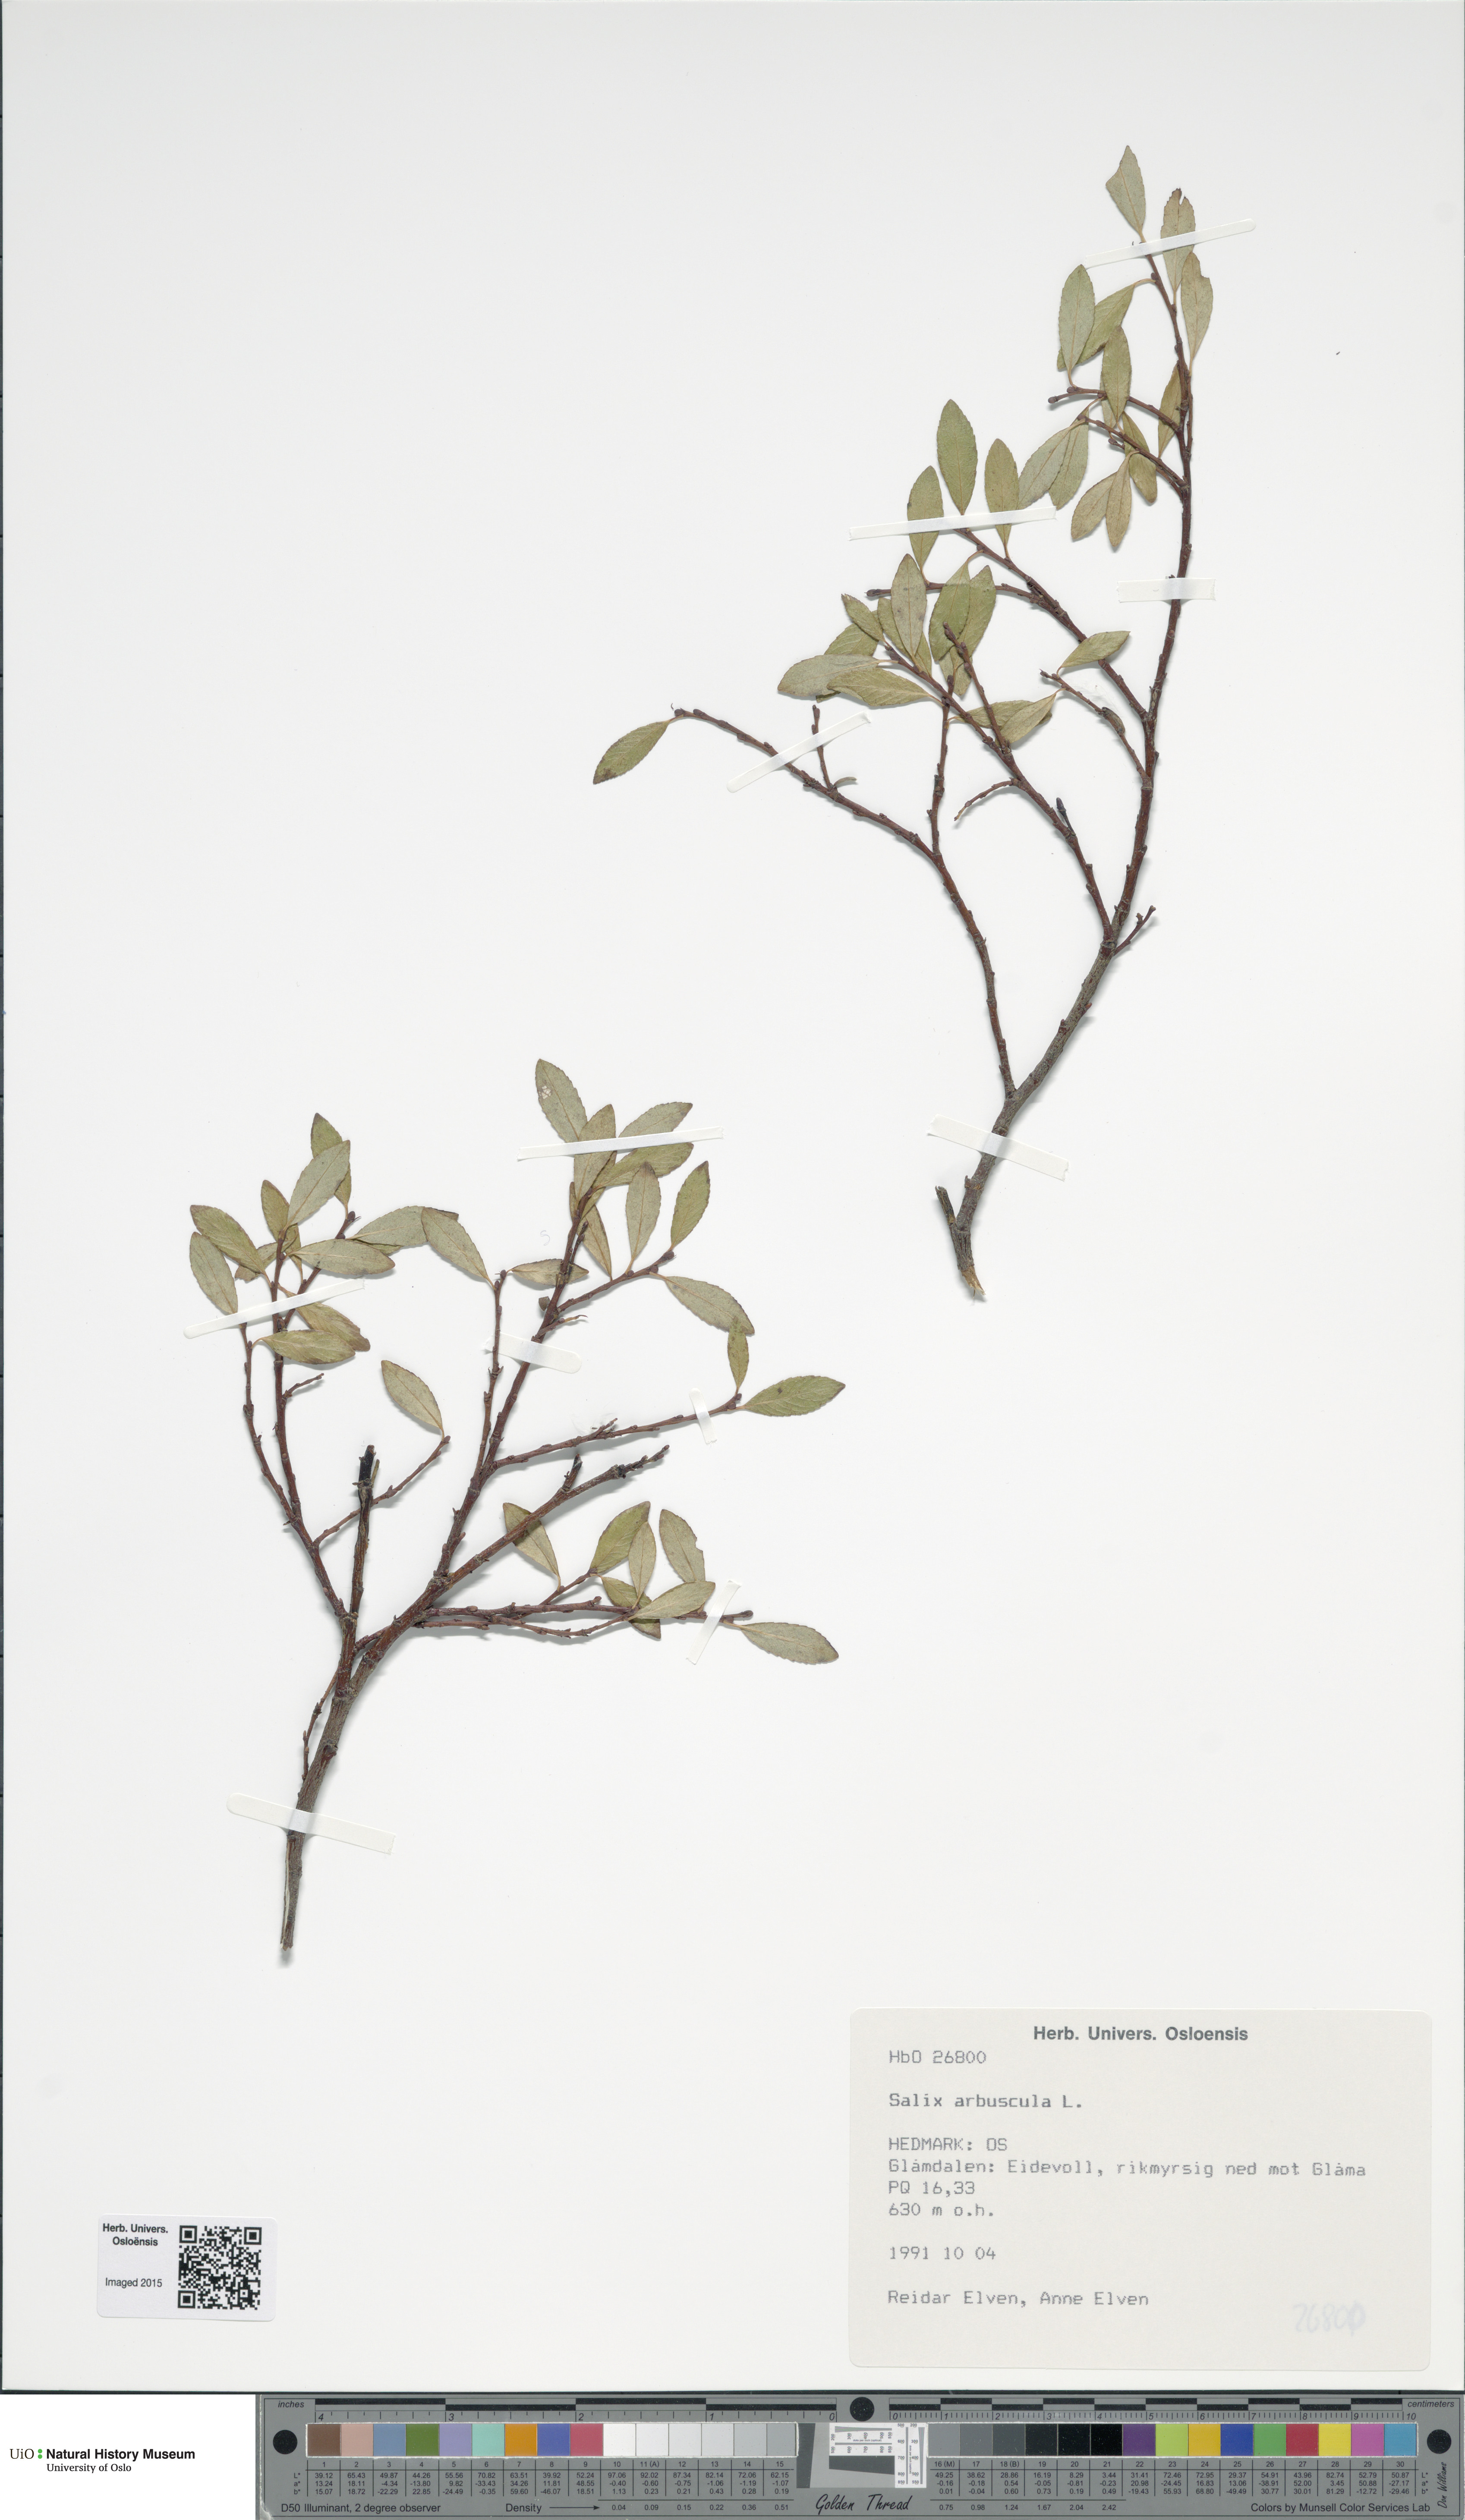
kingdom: Plantae
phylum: Tracheophyta
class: Magnoliopsida
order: Malpighiales
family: Salicaceae
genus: Salix
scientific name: Salix arbuscula
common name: Mountain willow
